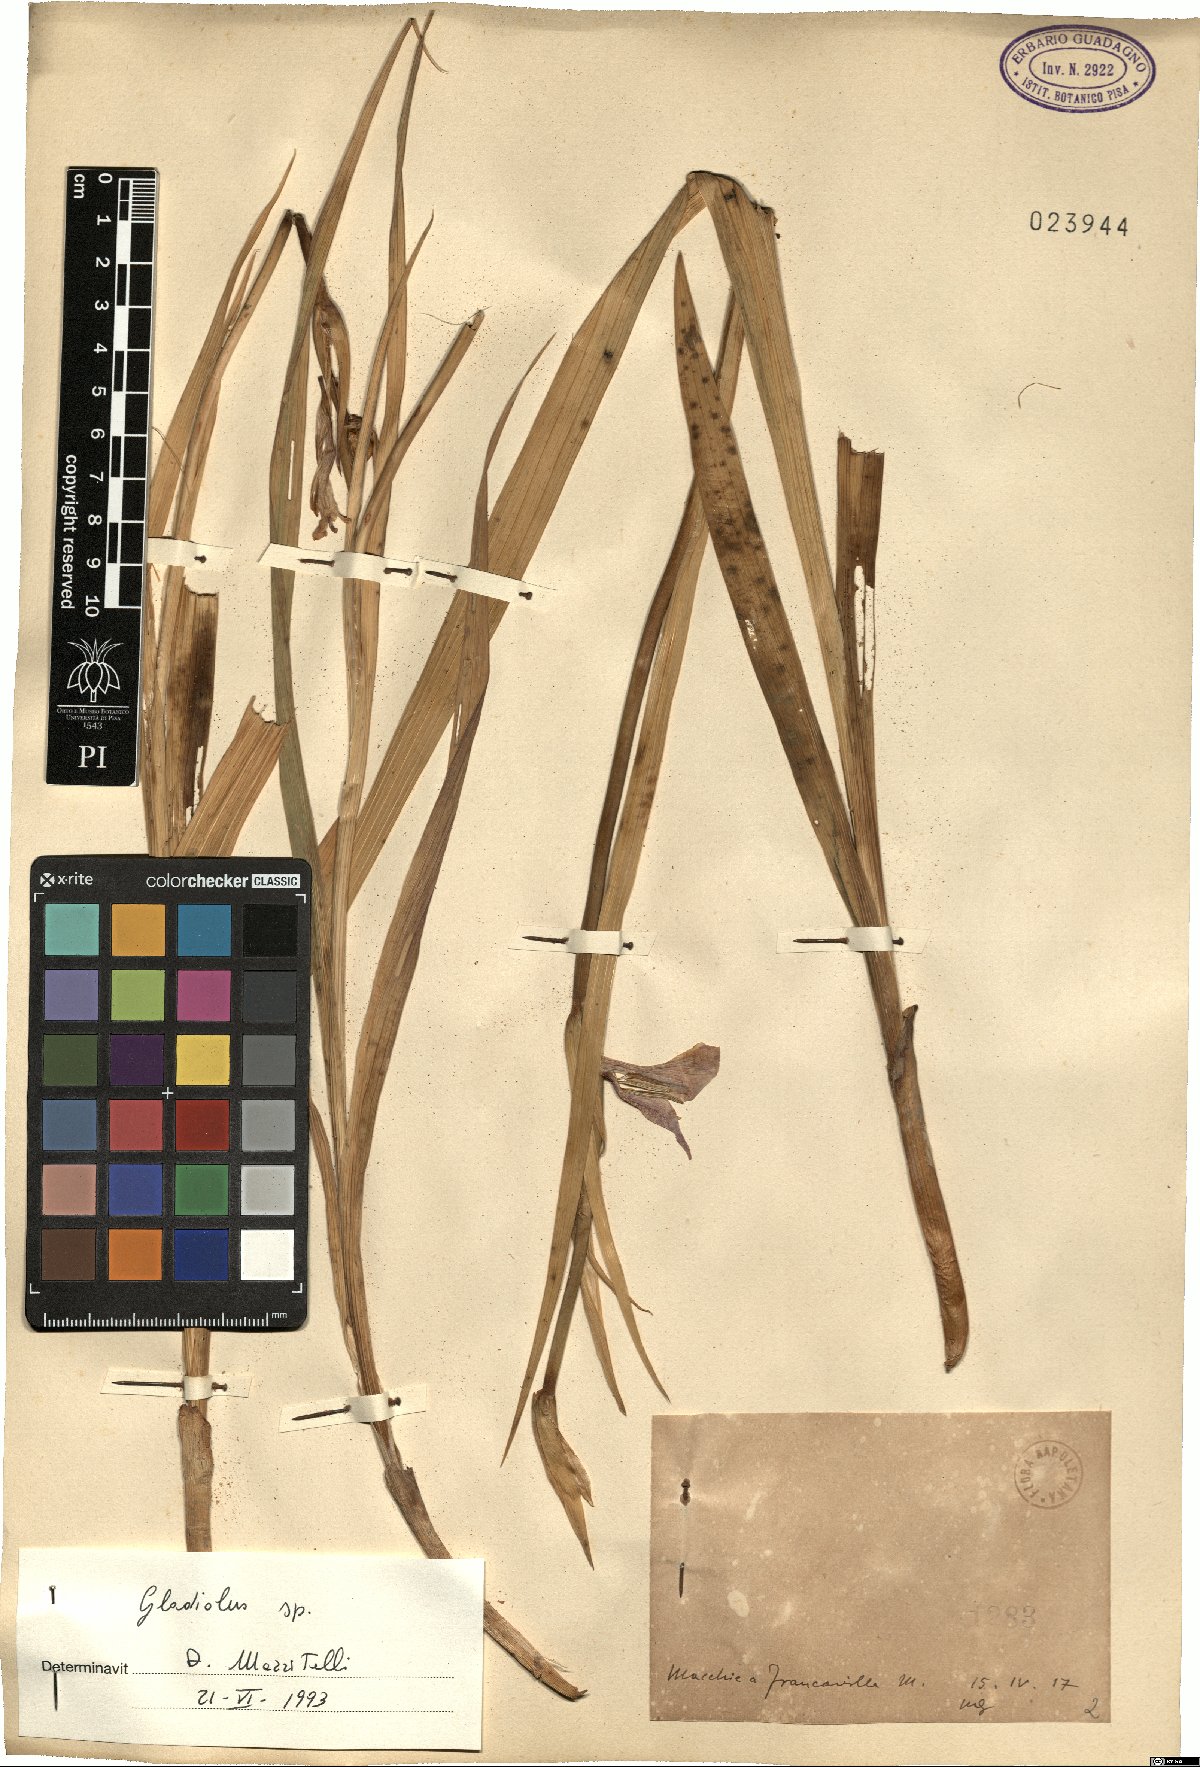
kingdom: Plantae
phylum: Tracheophyta
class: Liliopsida
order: Asparagales
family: Iridaceae
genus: Gladiolus
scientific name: Gladiolus
